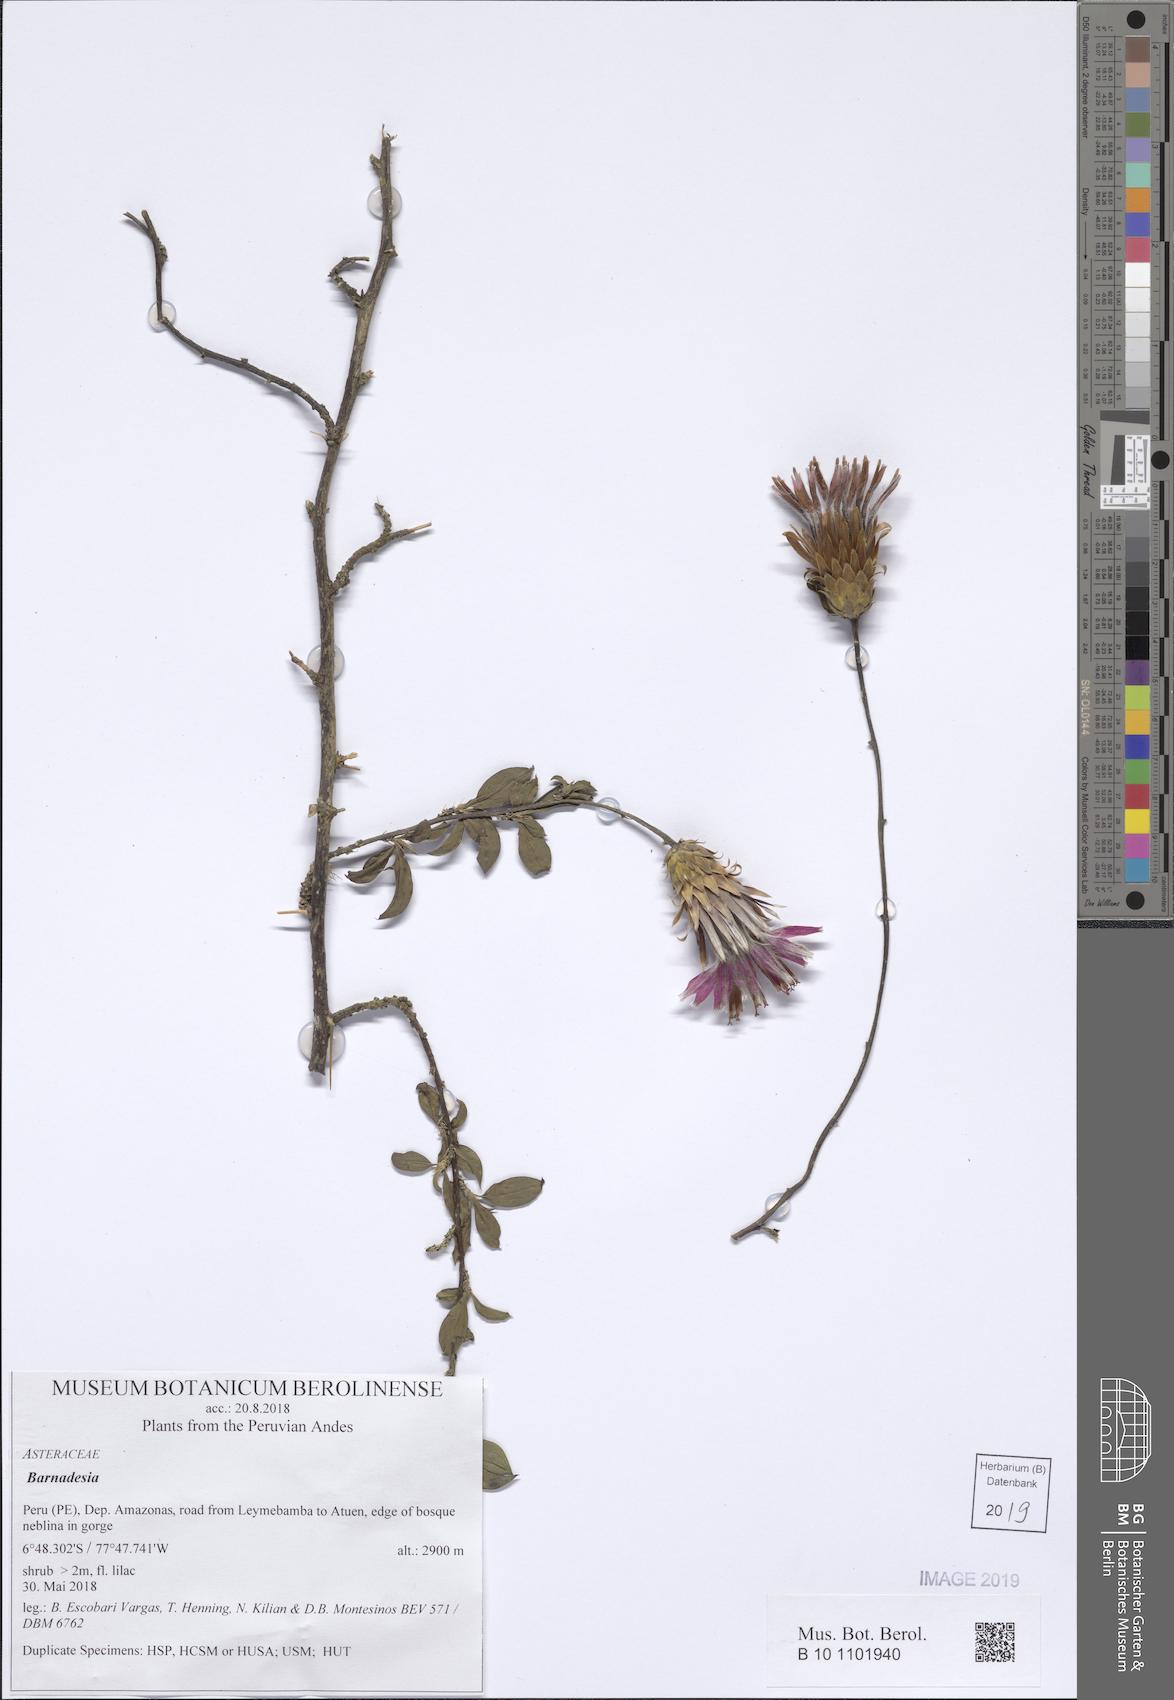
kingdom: Plantae
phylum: Tracheophyta
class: Magnoliopsida
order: Asterales
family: Asteraceae
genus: Barnadesia
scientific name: Barnadesia
